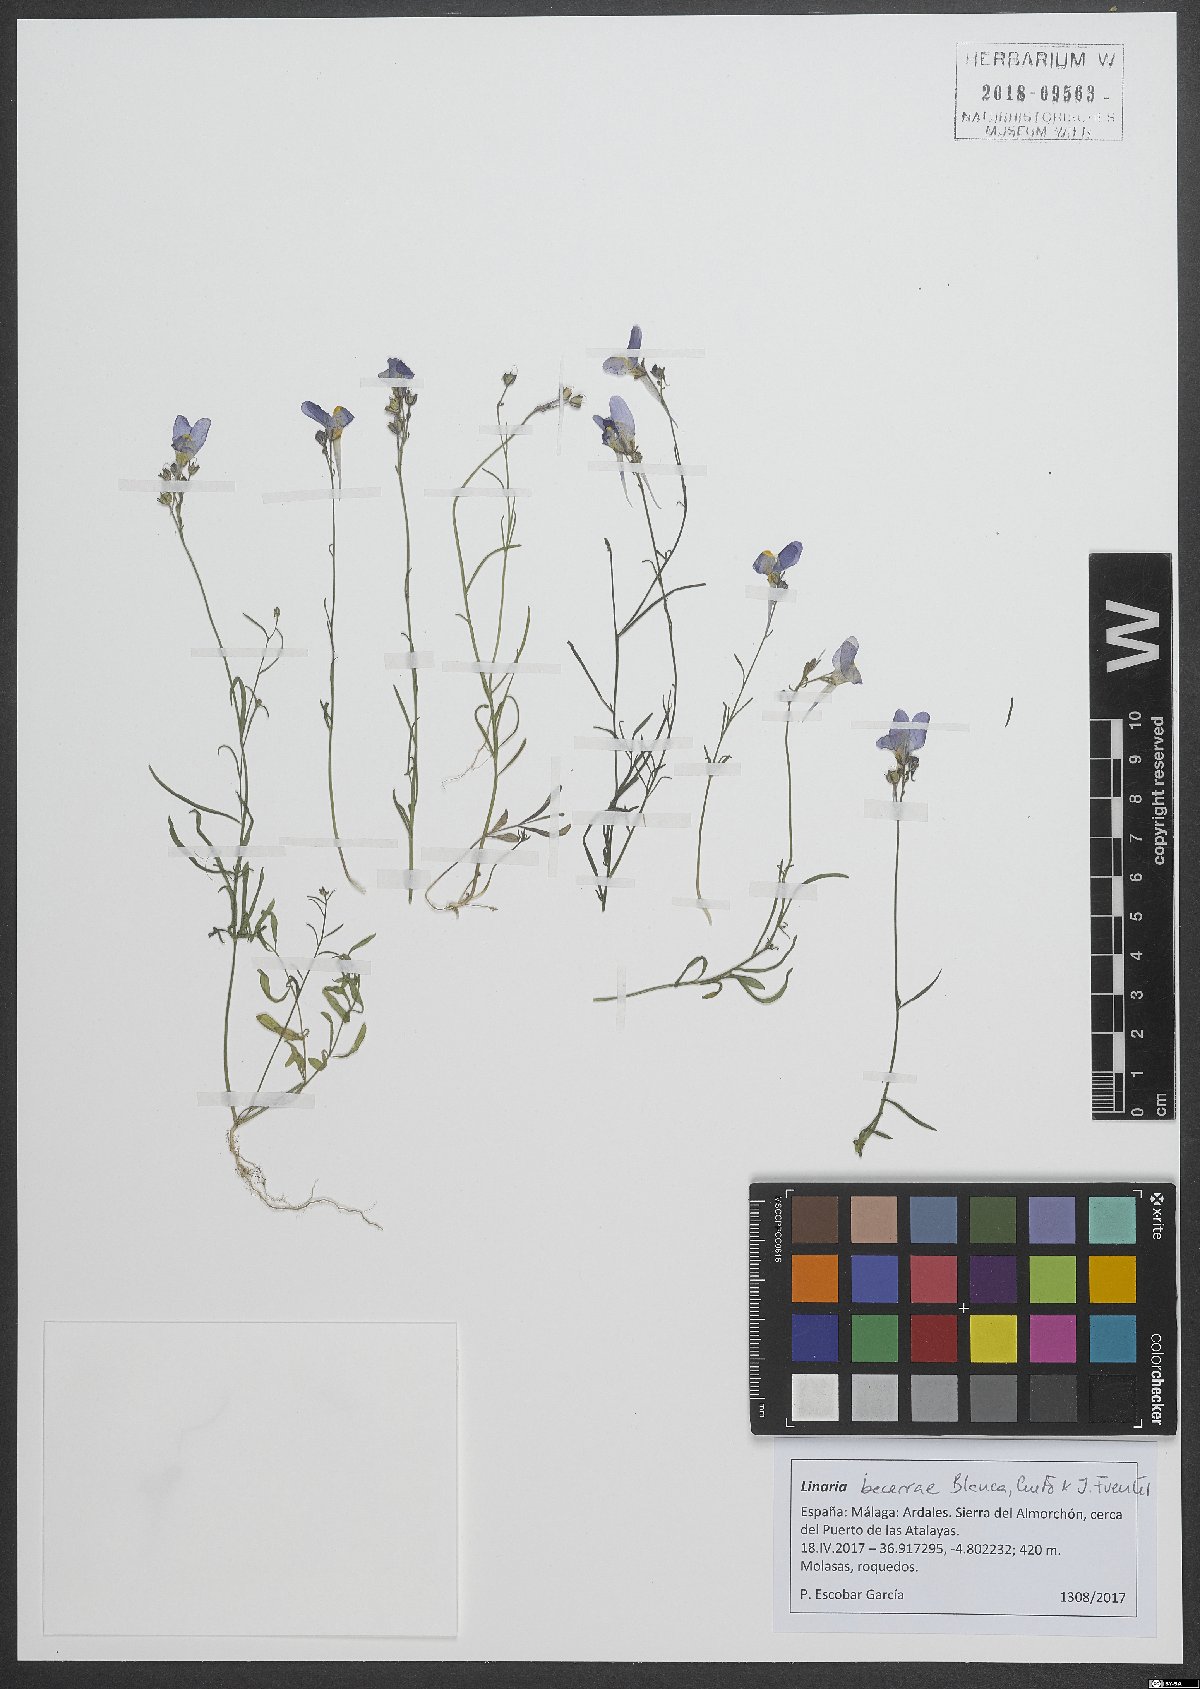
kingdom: Plantae
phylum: Tracheophyta
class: Magnoliopsida
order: Lamiales
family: Plantaginaceae
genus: Linaria
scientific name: Linaria becerrae
